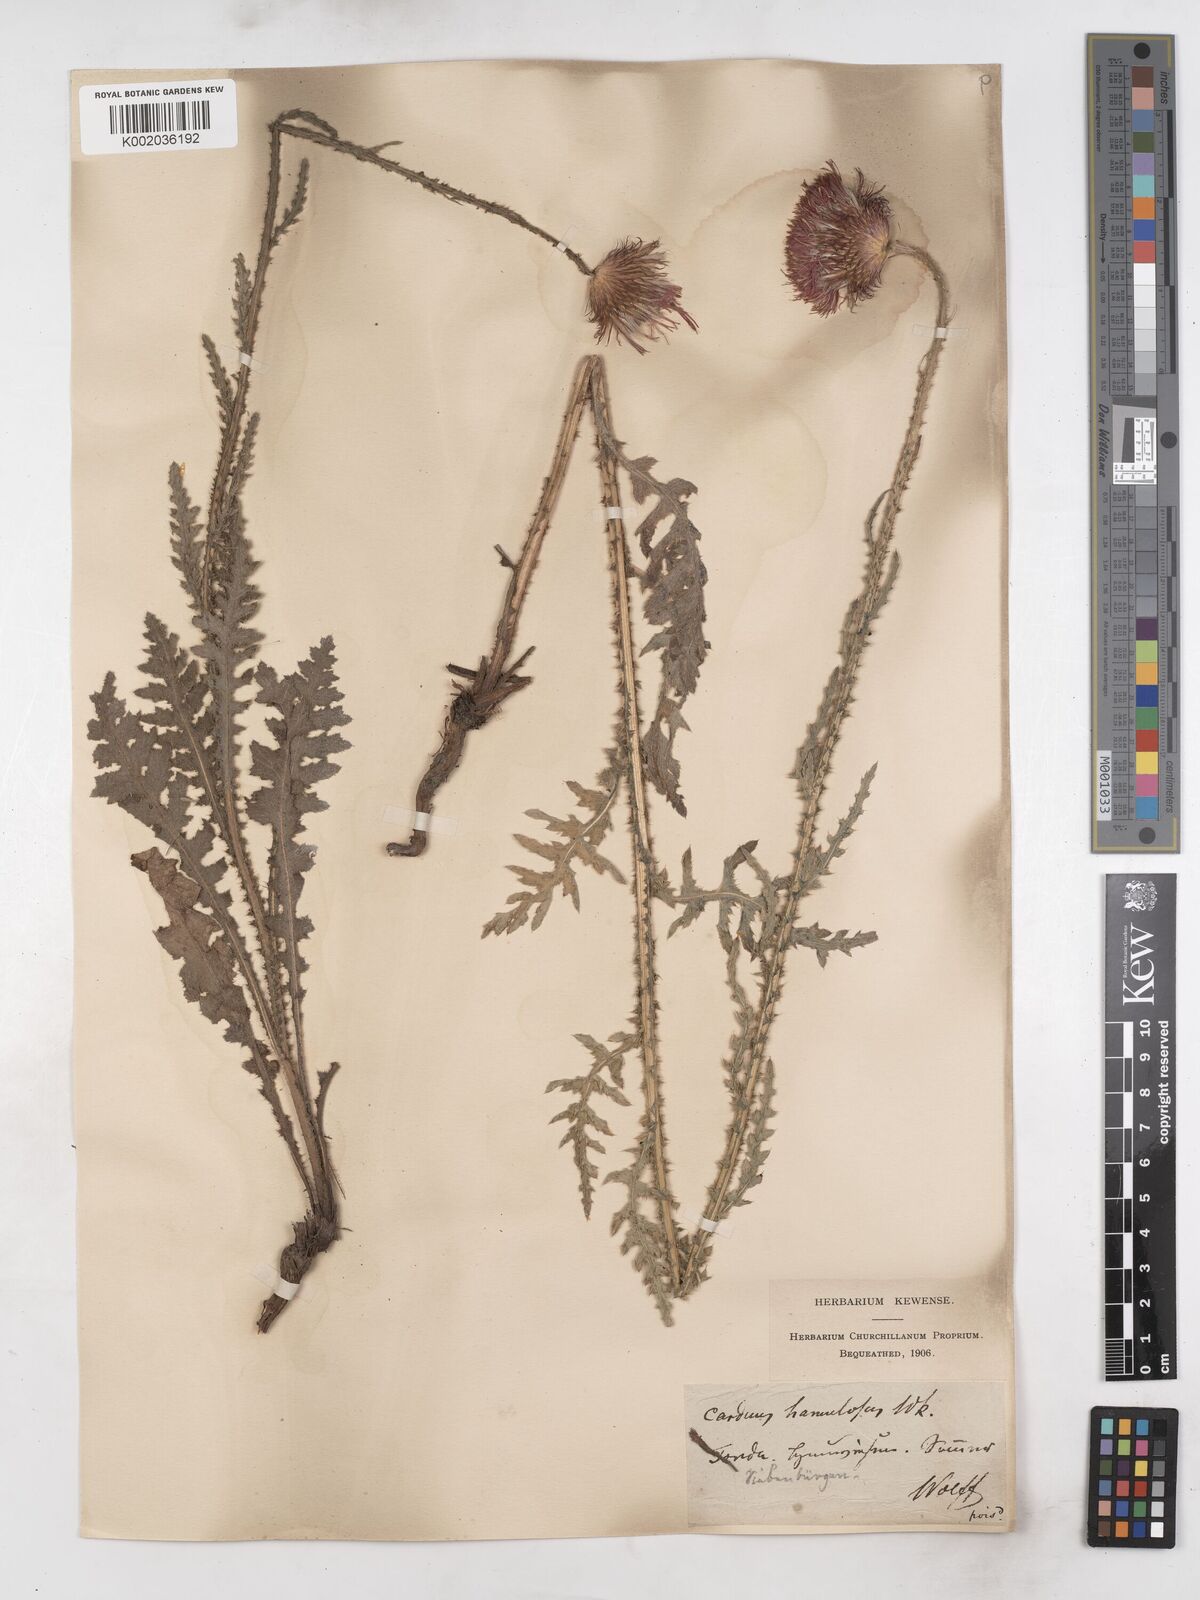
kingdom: Plantae
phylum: Tracheophyta
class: Magnoliopsida
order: Asterales
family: Asteraceae
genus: Carduus
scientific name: Carduus
